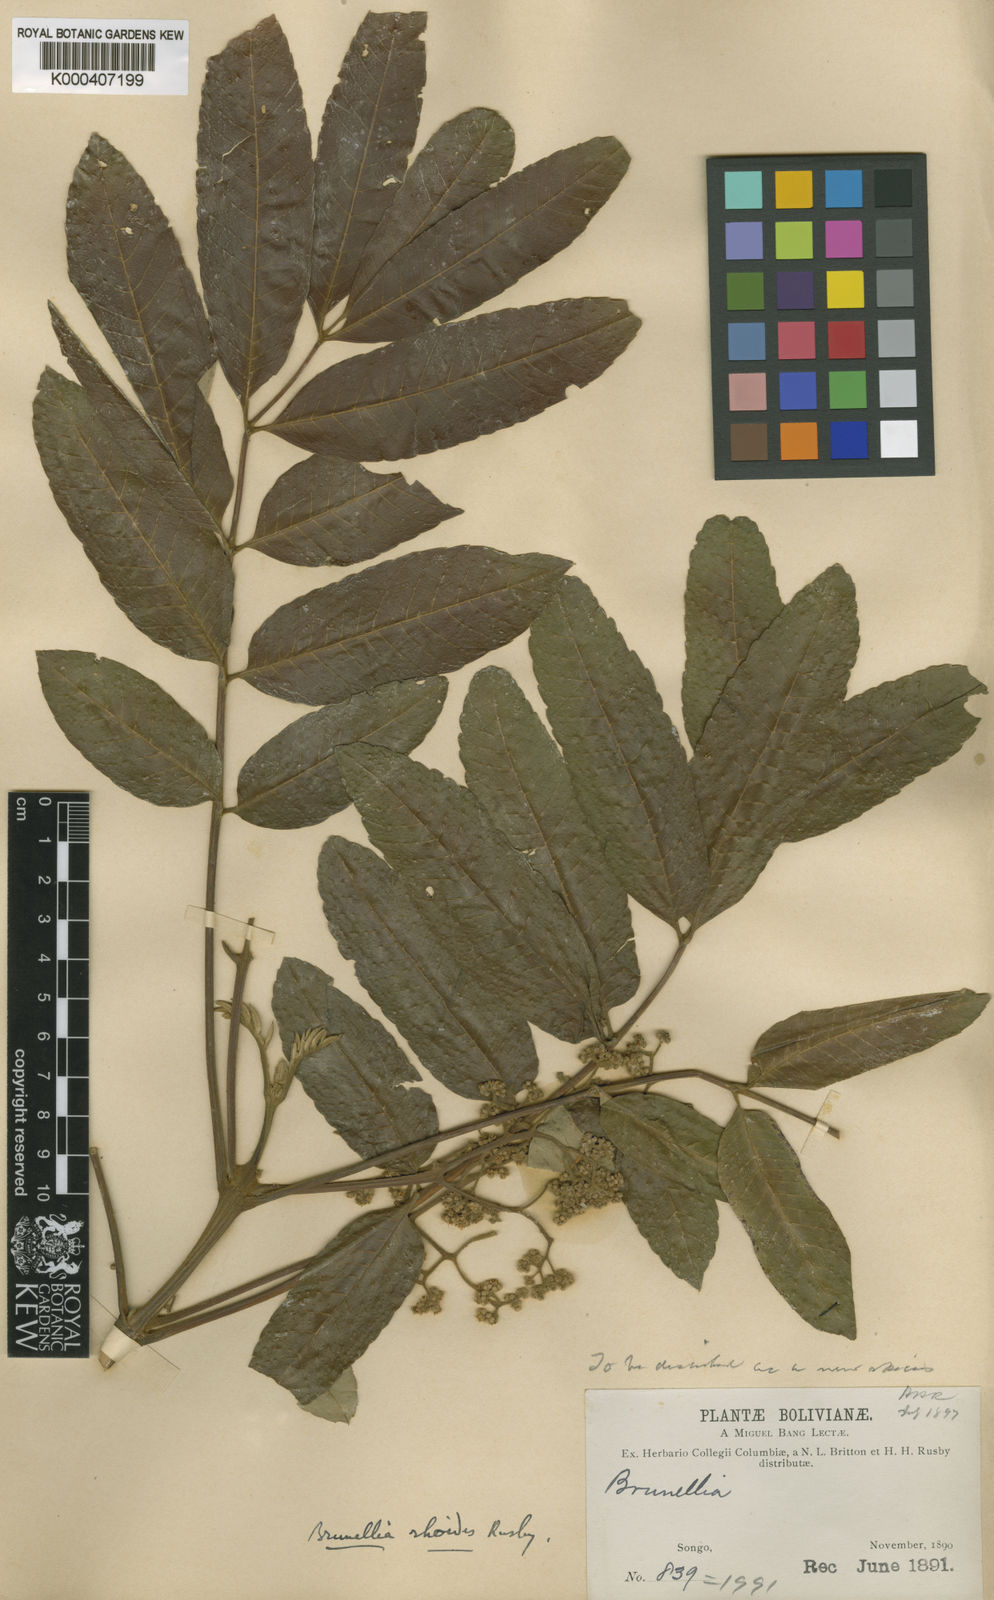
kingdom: Plantae
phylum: Tracheophyta
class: Magnoliopsida
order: Oxalidales
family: Brunelliaceae
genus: Brunellia
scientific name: Brunellia rhoides
